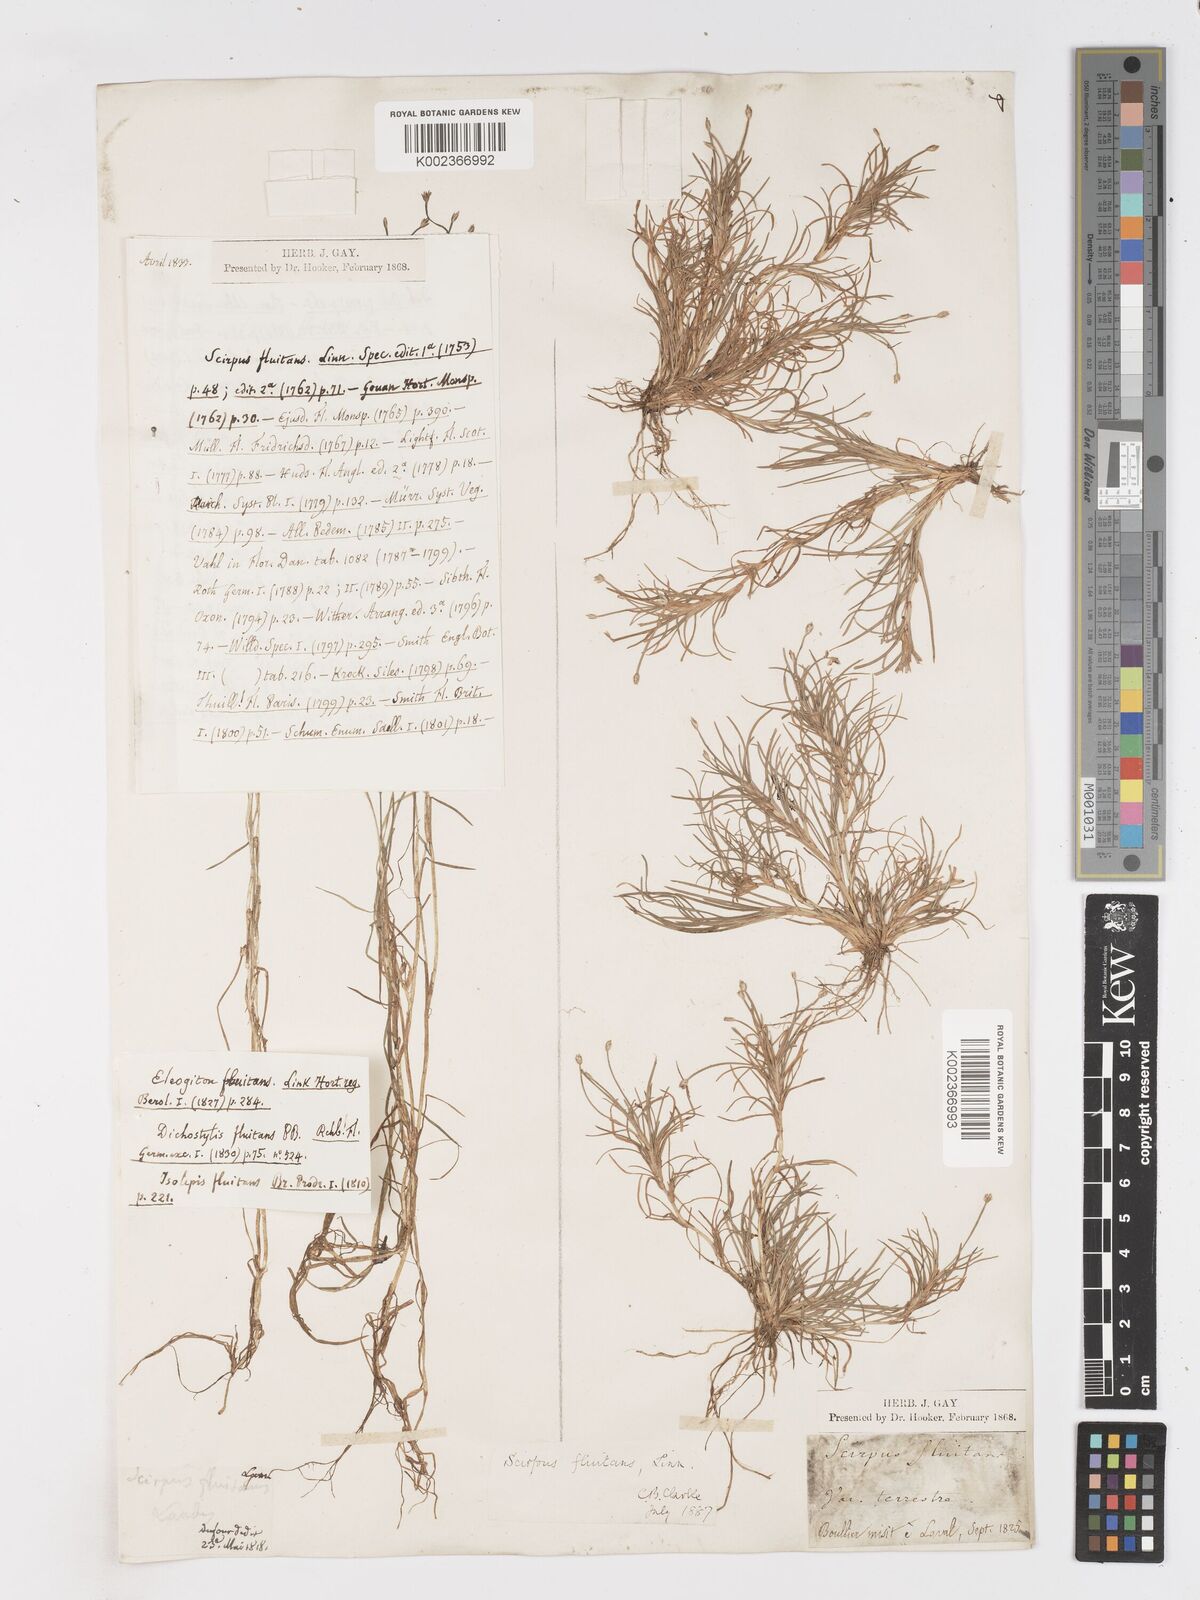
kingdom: Plantae
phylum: Tracheophyta
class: Liliopsida
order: Poales
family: Cyperaceae
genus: Isolepis
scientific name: Isolepis fluitans
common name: Floating club-rush
